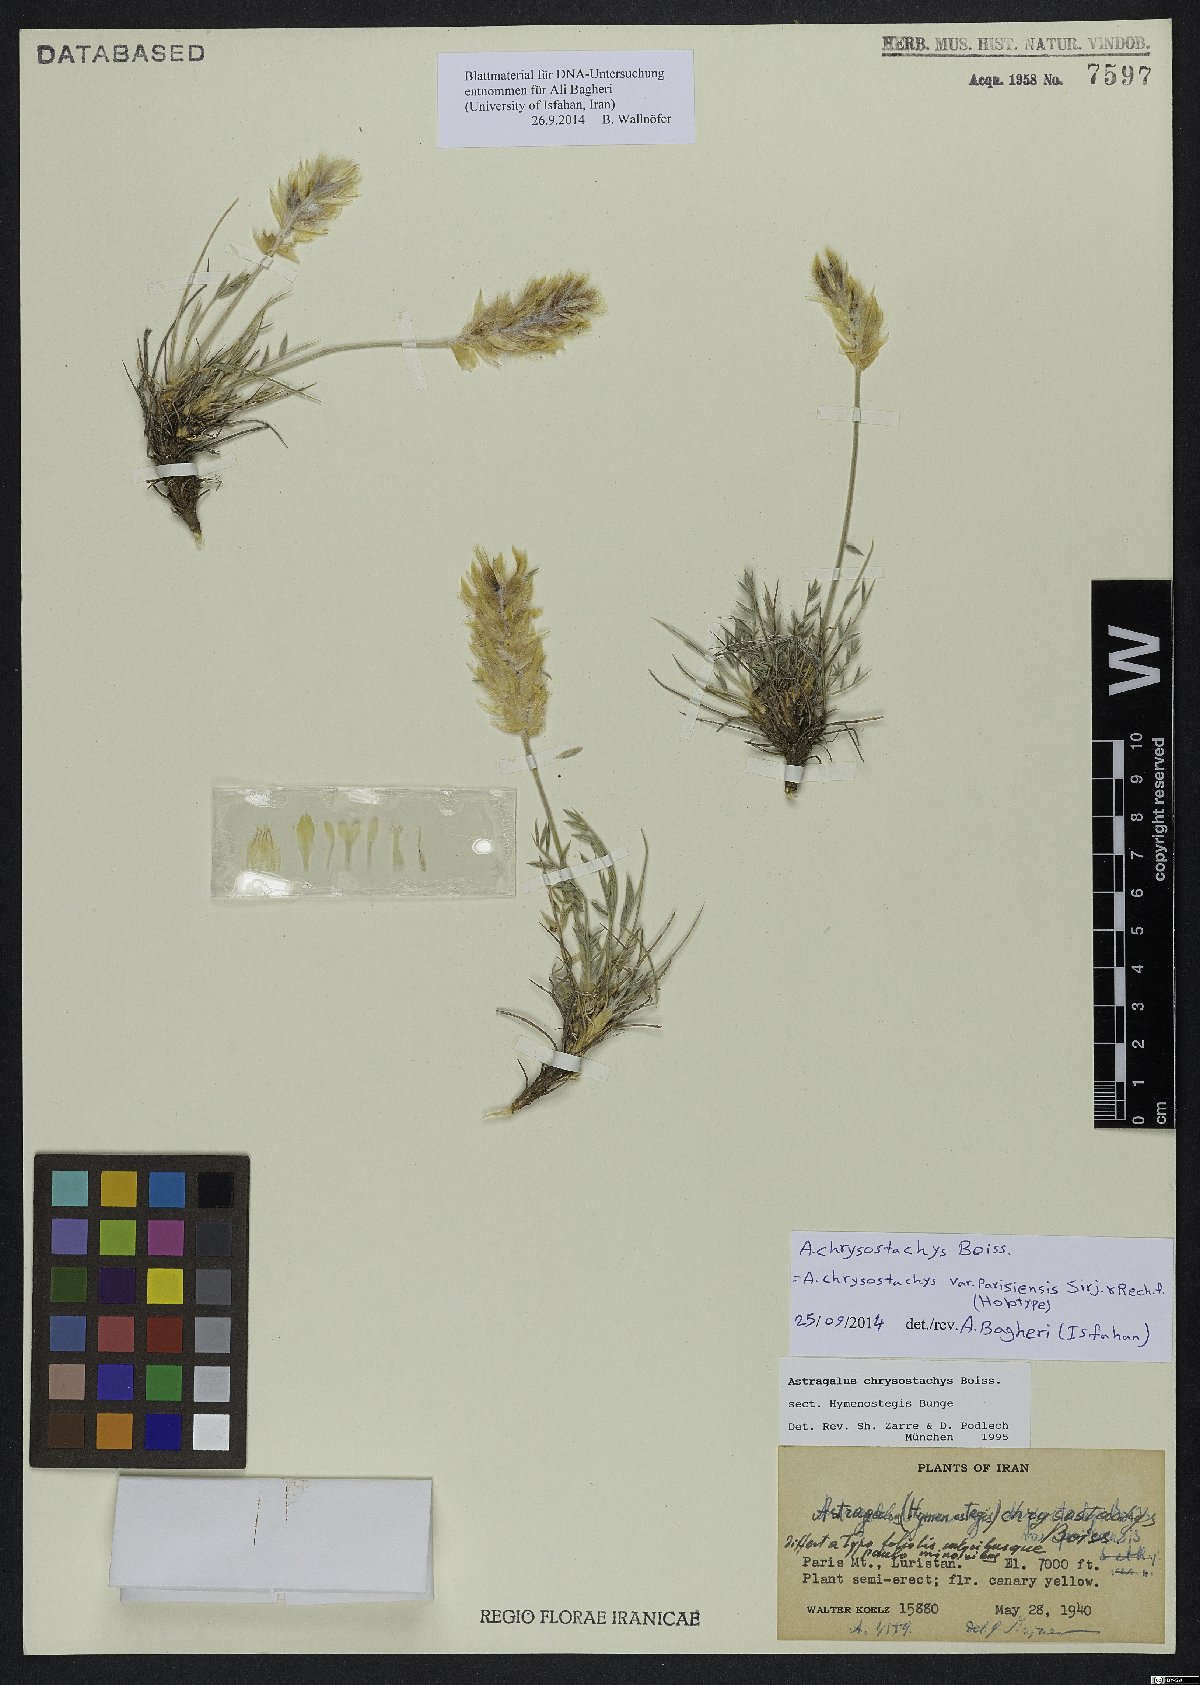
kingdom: Plantae
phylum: Tracheophyta
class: Magnoliopsida
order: Fabales
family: Fabaceae
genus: Astragalus
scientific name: Astragalus chrysostachys
